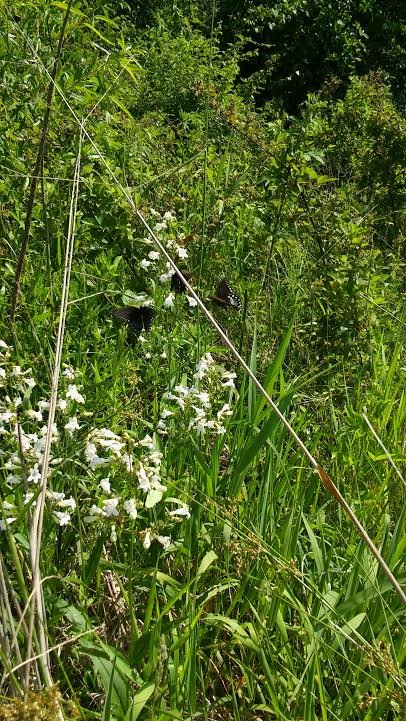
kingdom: Animalia
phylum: Arthropoda
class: Insecta
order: Lepidoptera
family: Papilionidae
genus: Pterourus
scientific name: Pterourus troilus
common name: Spicebush Swallowtail
